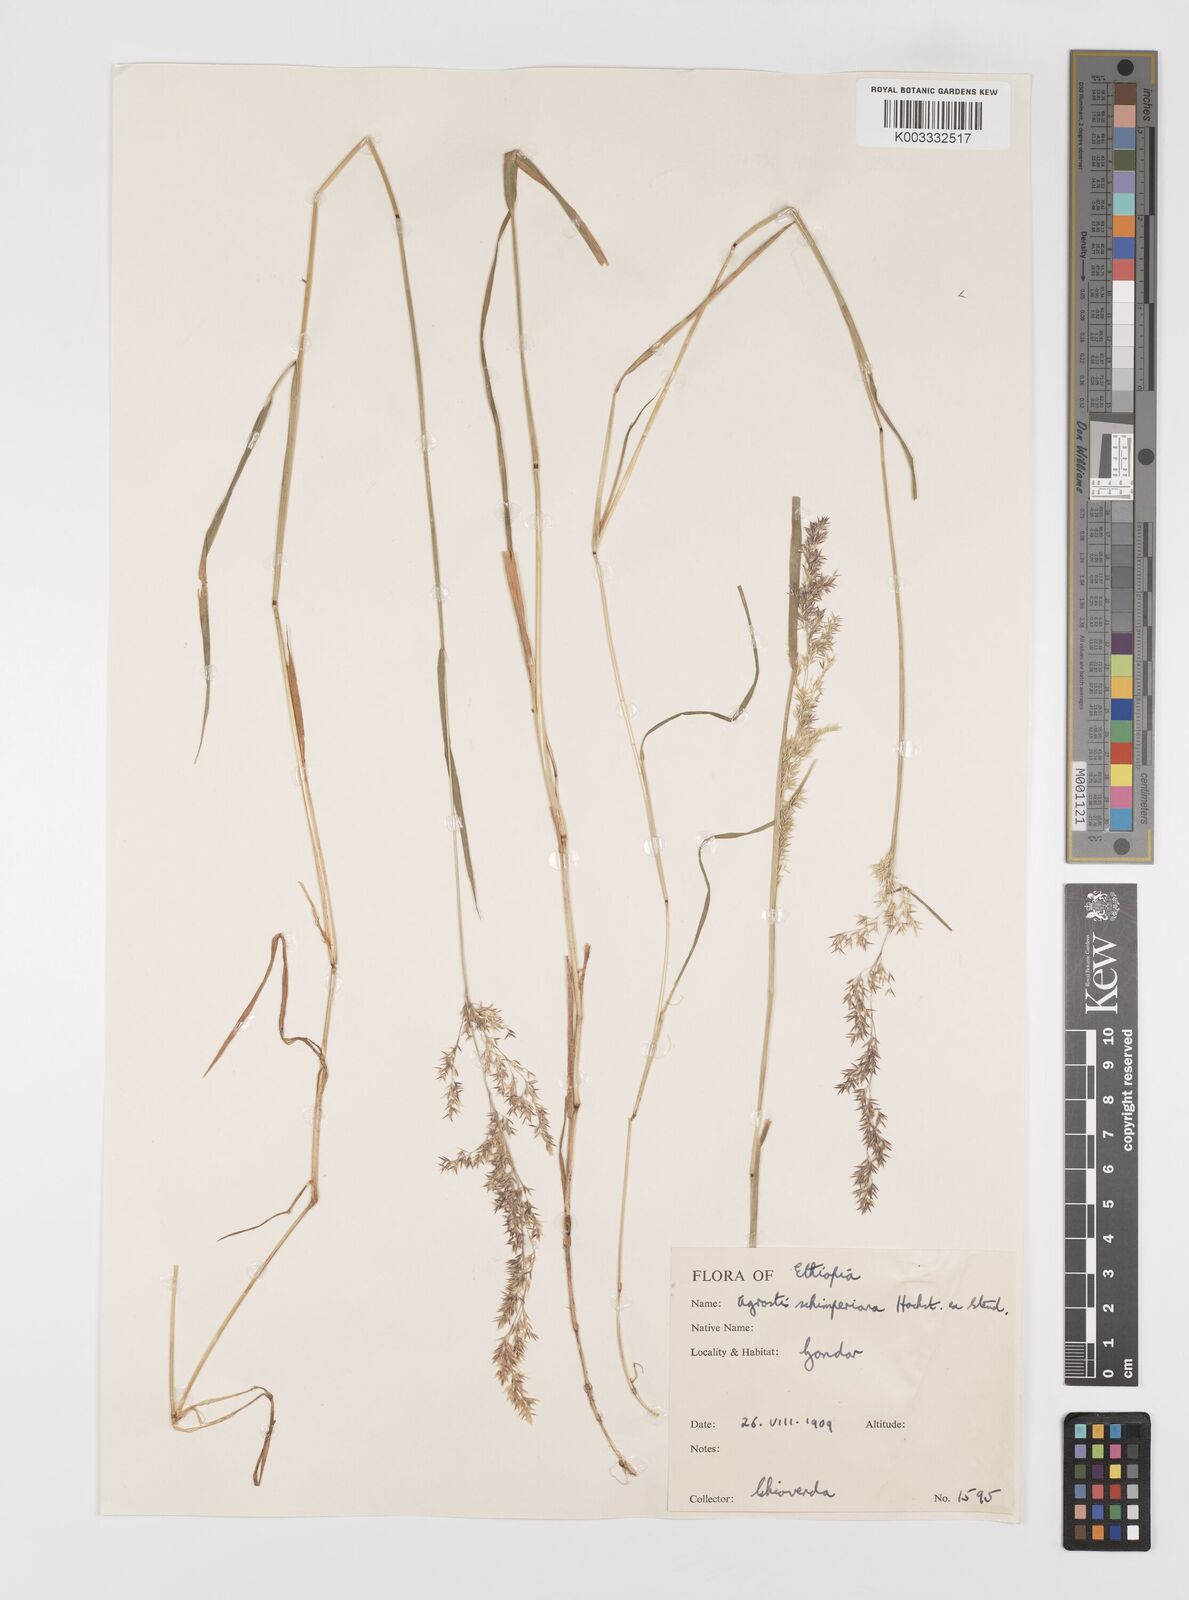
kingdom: Plantae
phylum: Tracheophyta
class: Liliopsida
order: Poales
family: Poaceae
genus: Polypogon
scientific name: Polypogon schimperianus
